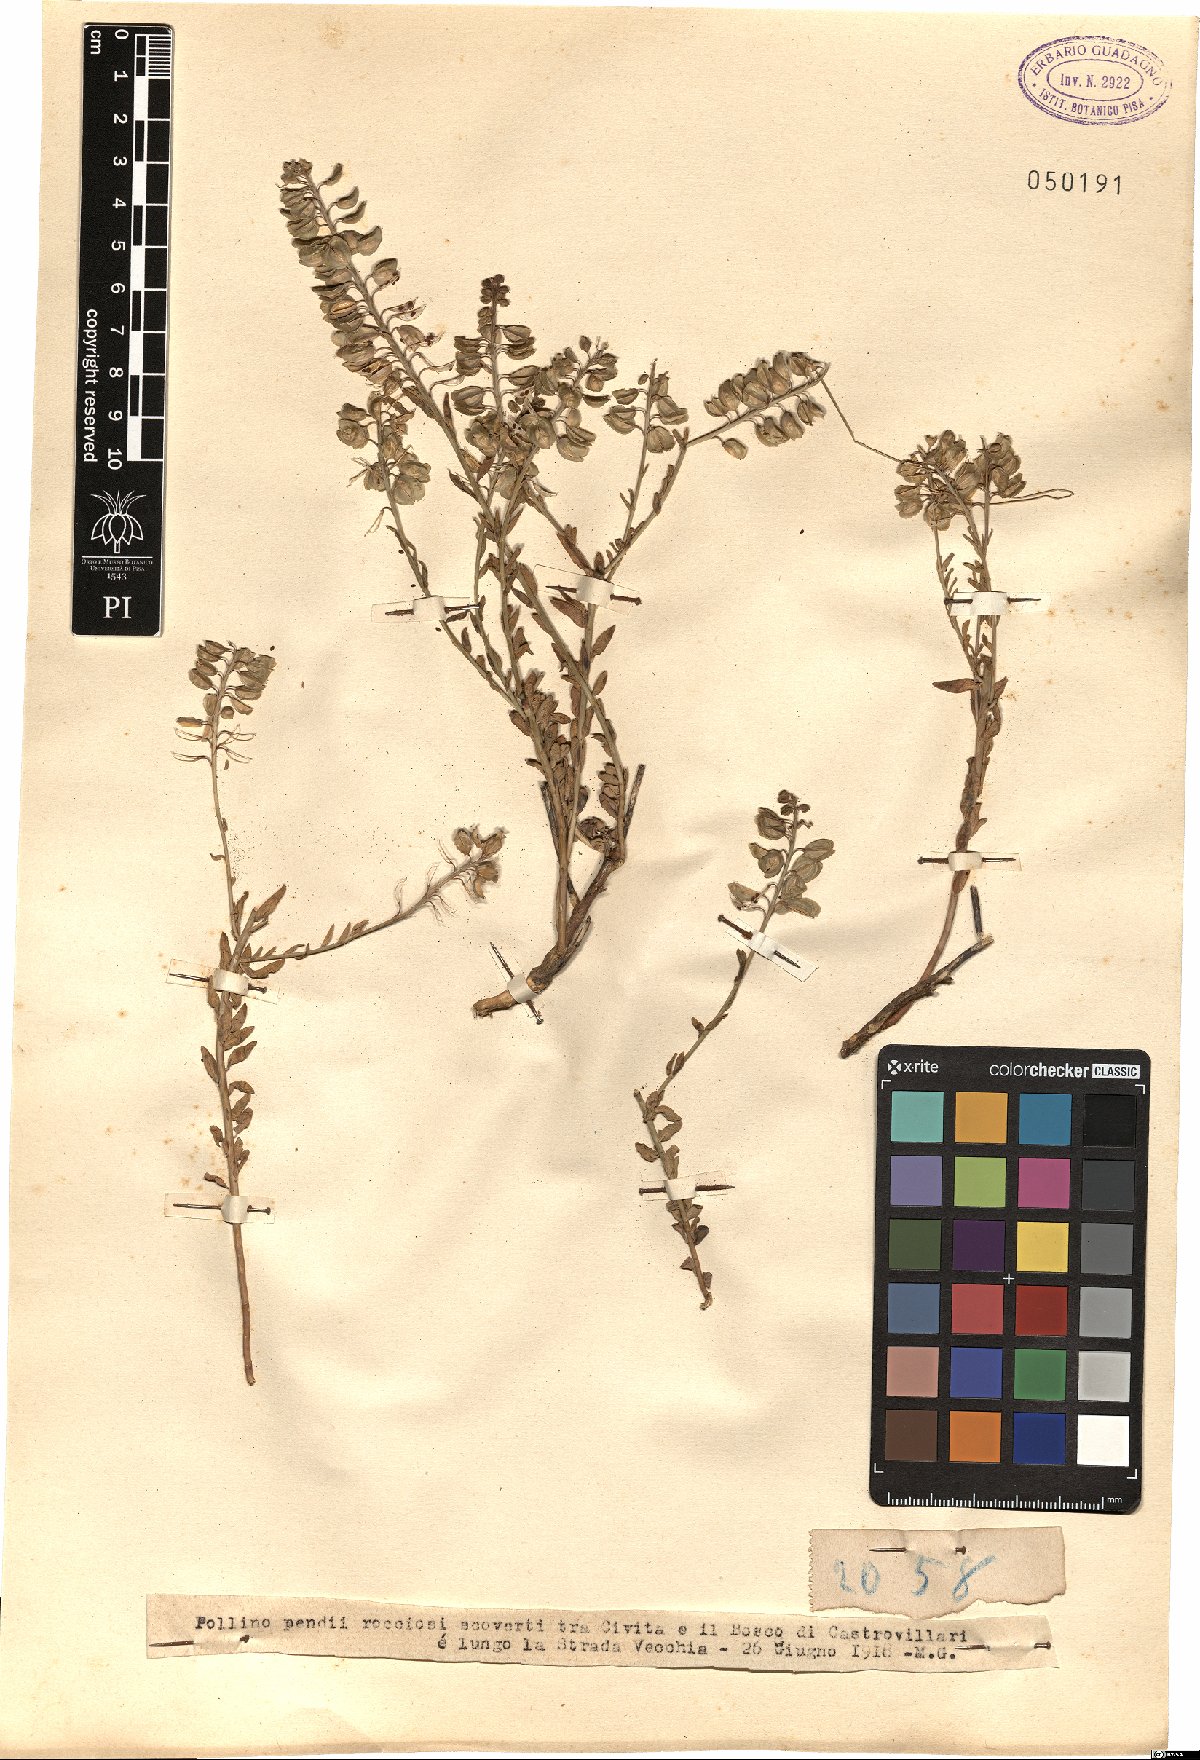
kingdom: Plantae
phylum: Tracheophyta
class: Magnoliopsida
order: Brassicales
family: Brassicaceae
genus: Aethionema
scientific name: Aethionema
